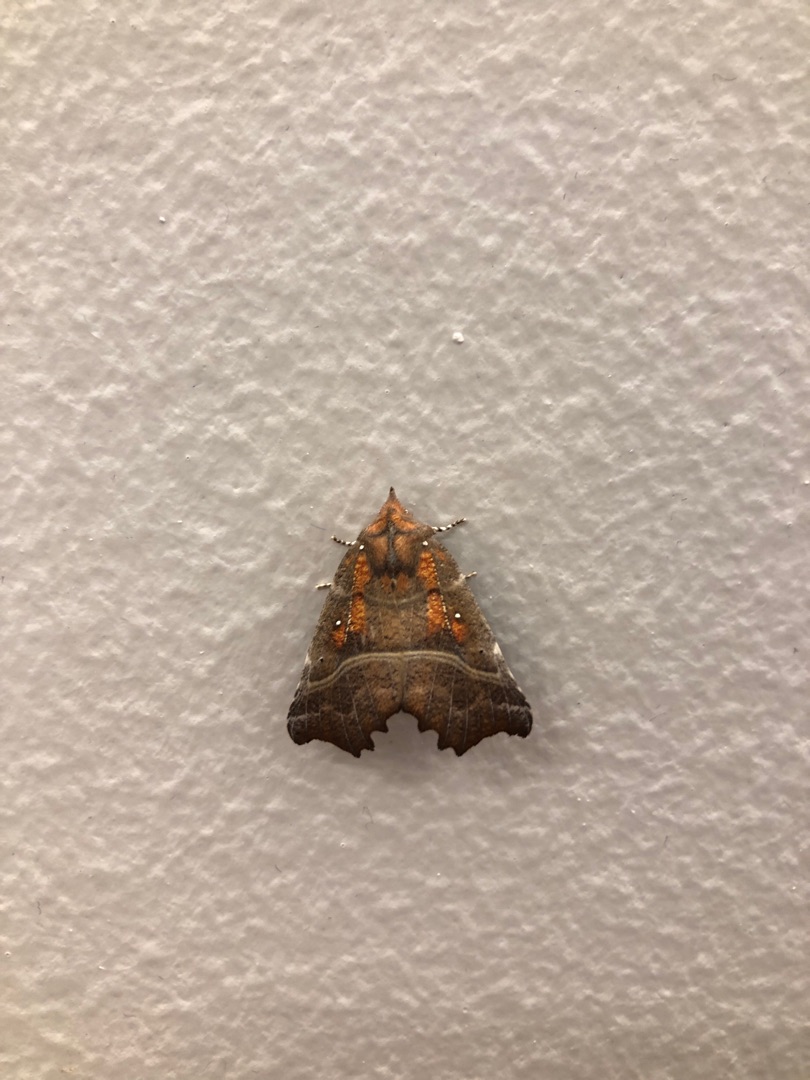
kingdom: Animalia
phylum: Arthropoda
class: Insecta
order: Lepidoptera
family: Erebidae
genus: Scoliopteryx
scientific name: Scoliopteryx libatrix
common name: Husmoderugle
